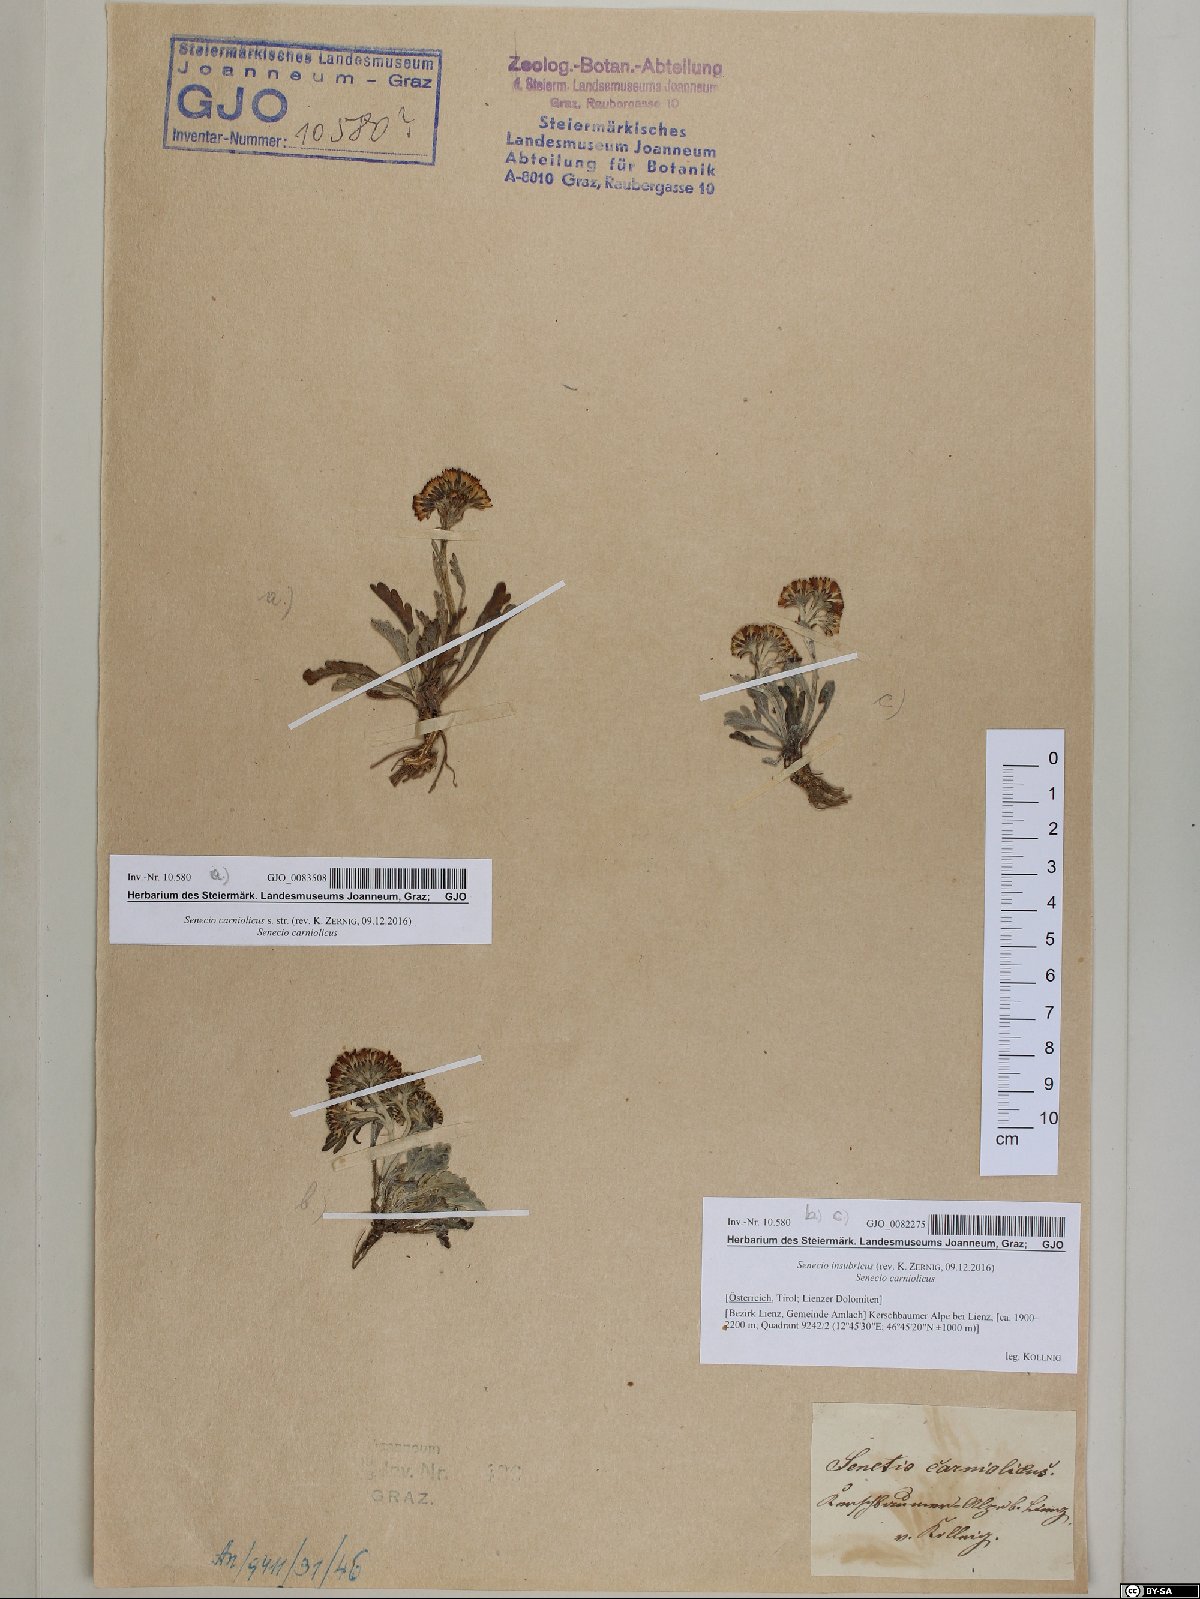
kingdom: Plantae
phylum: Tracheophyta
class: Magnoliopsida
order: Asterales
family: Asteraceae
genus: Jacobaea
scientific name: Jacobaea insubrica
